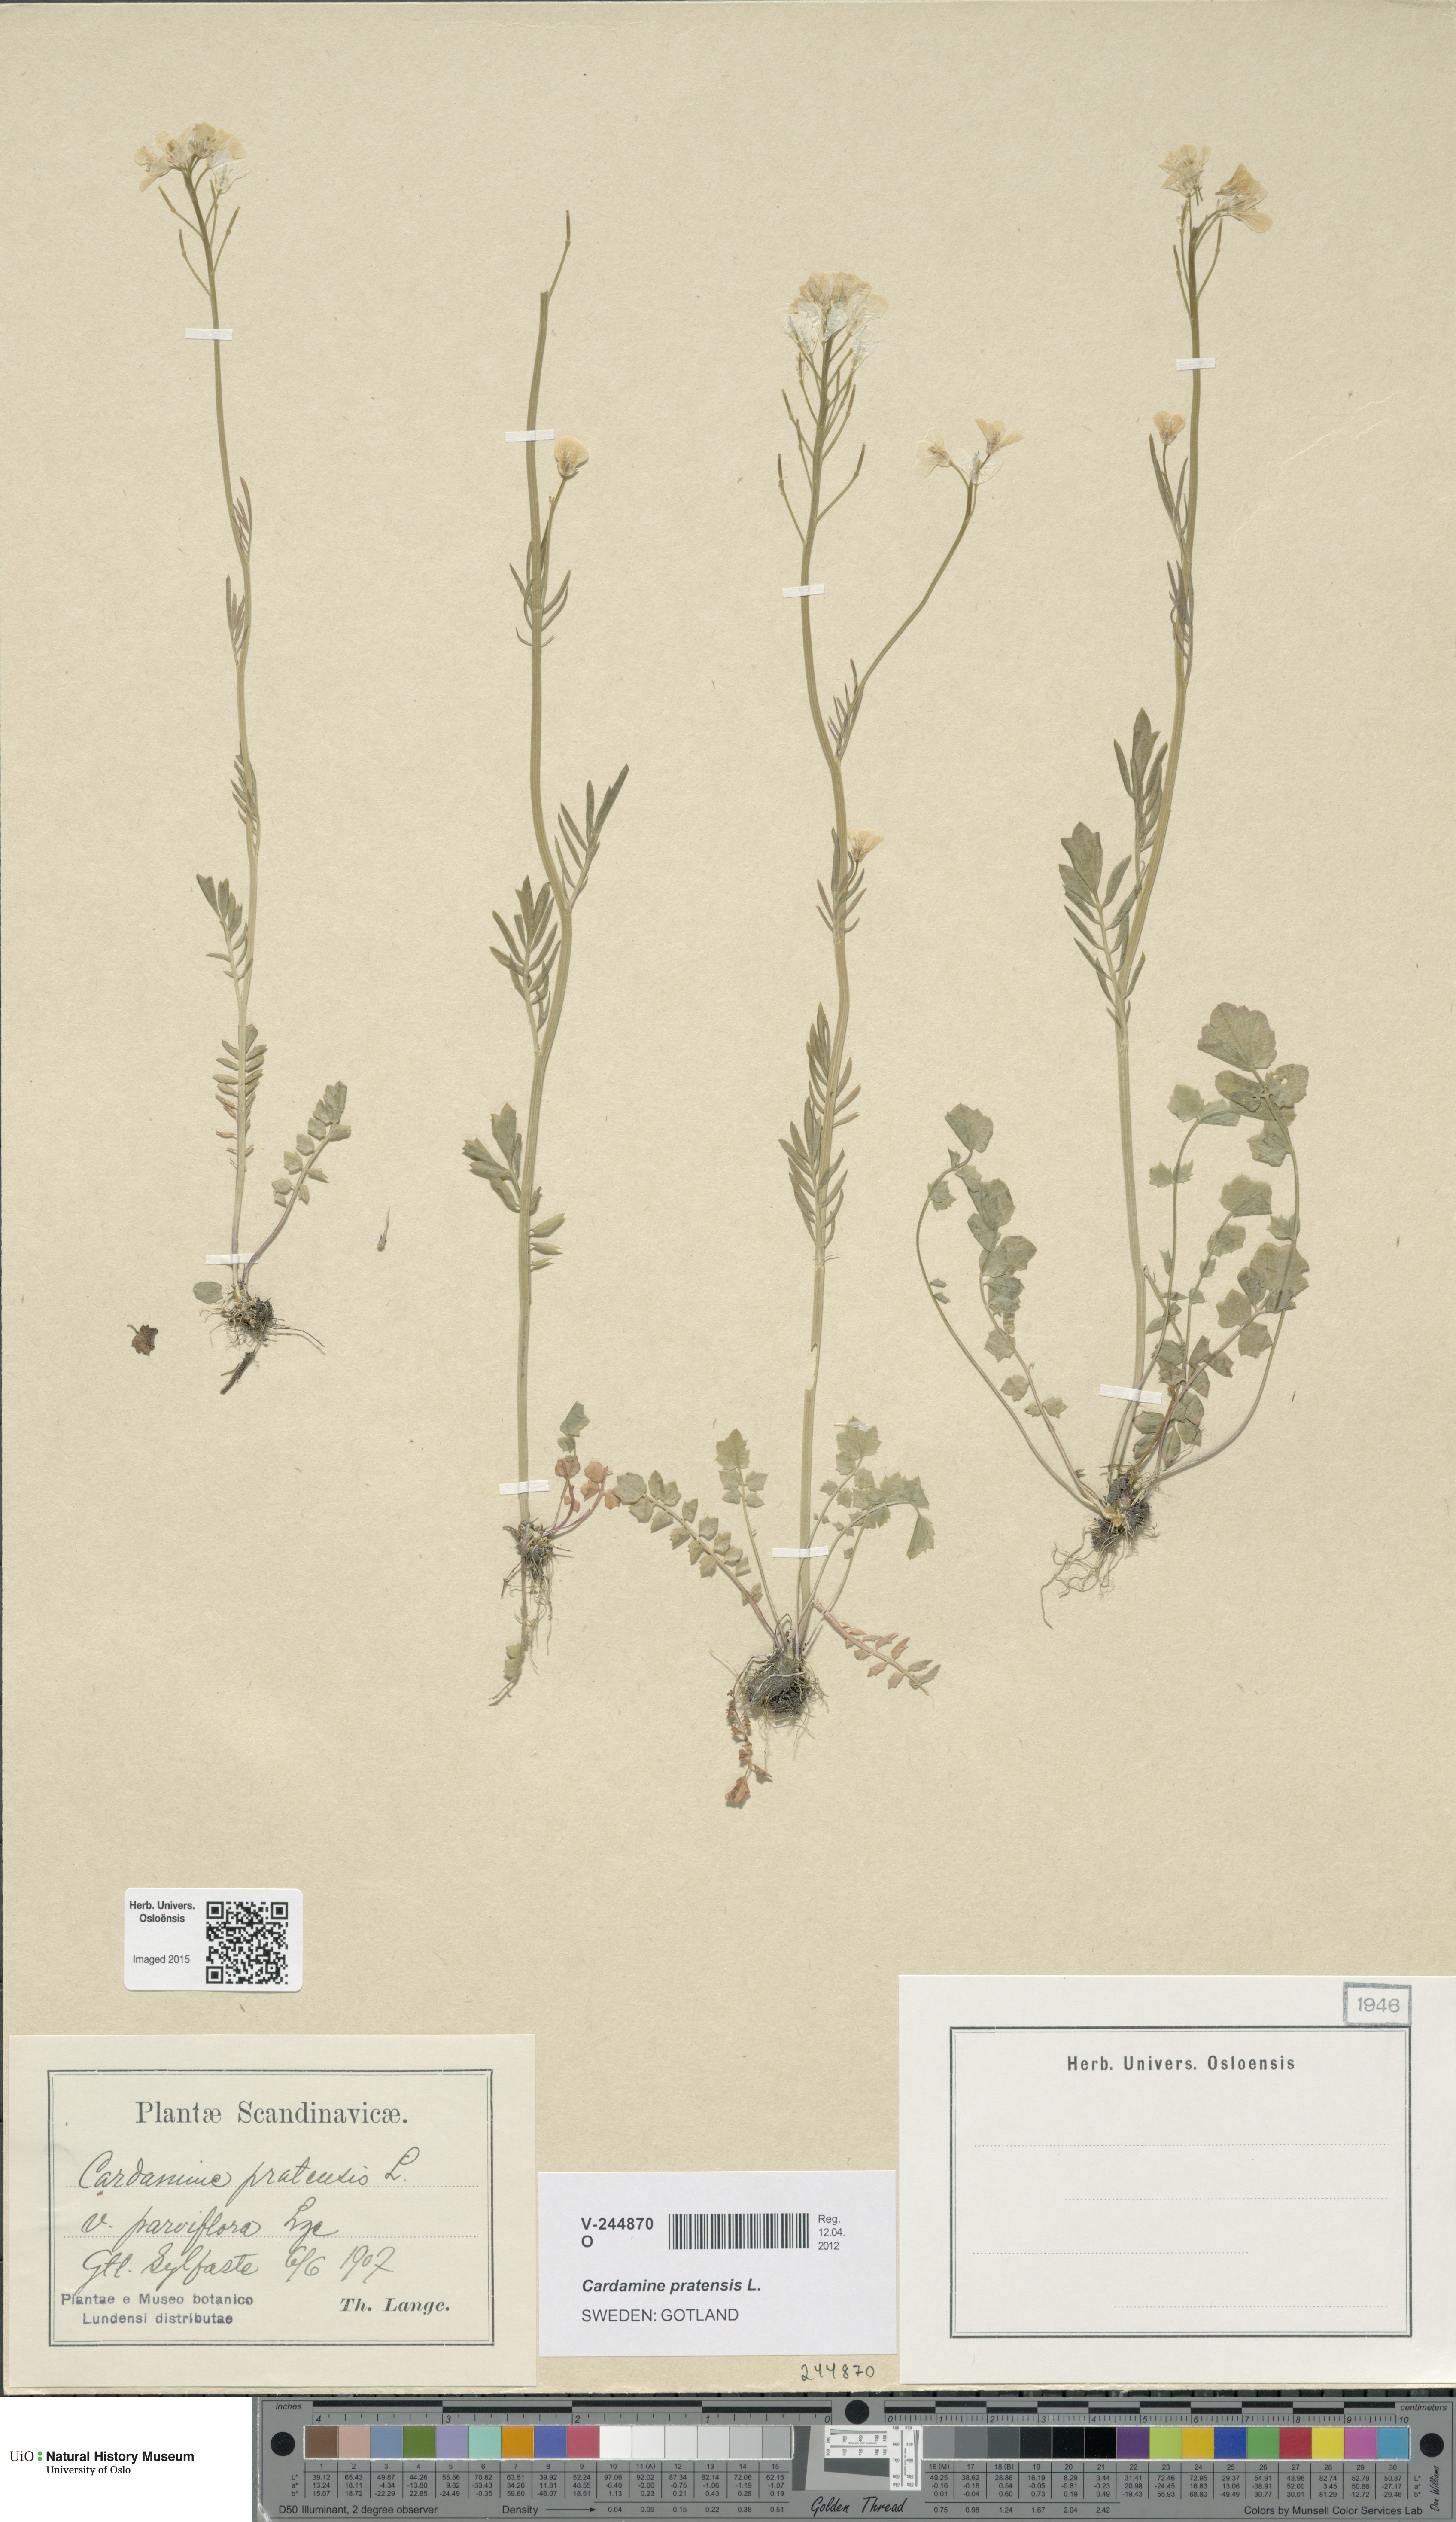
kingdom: Plantae
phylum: Tracheophyta
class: Magnoliopsida
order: Brassicales
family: Brassicaceae
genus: Cardamine
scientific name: Cardamine pratensis
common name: Cuckoo flower
